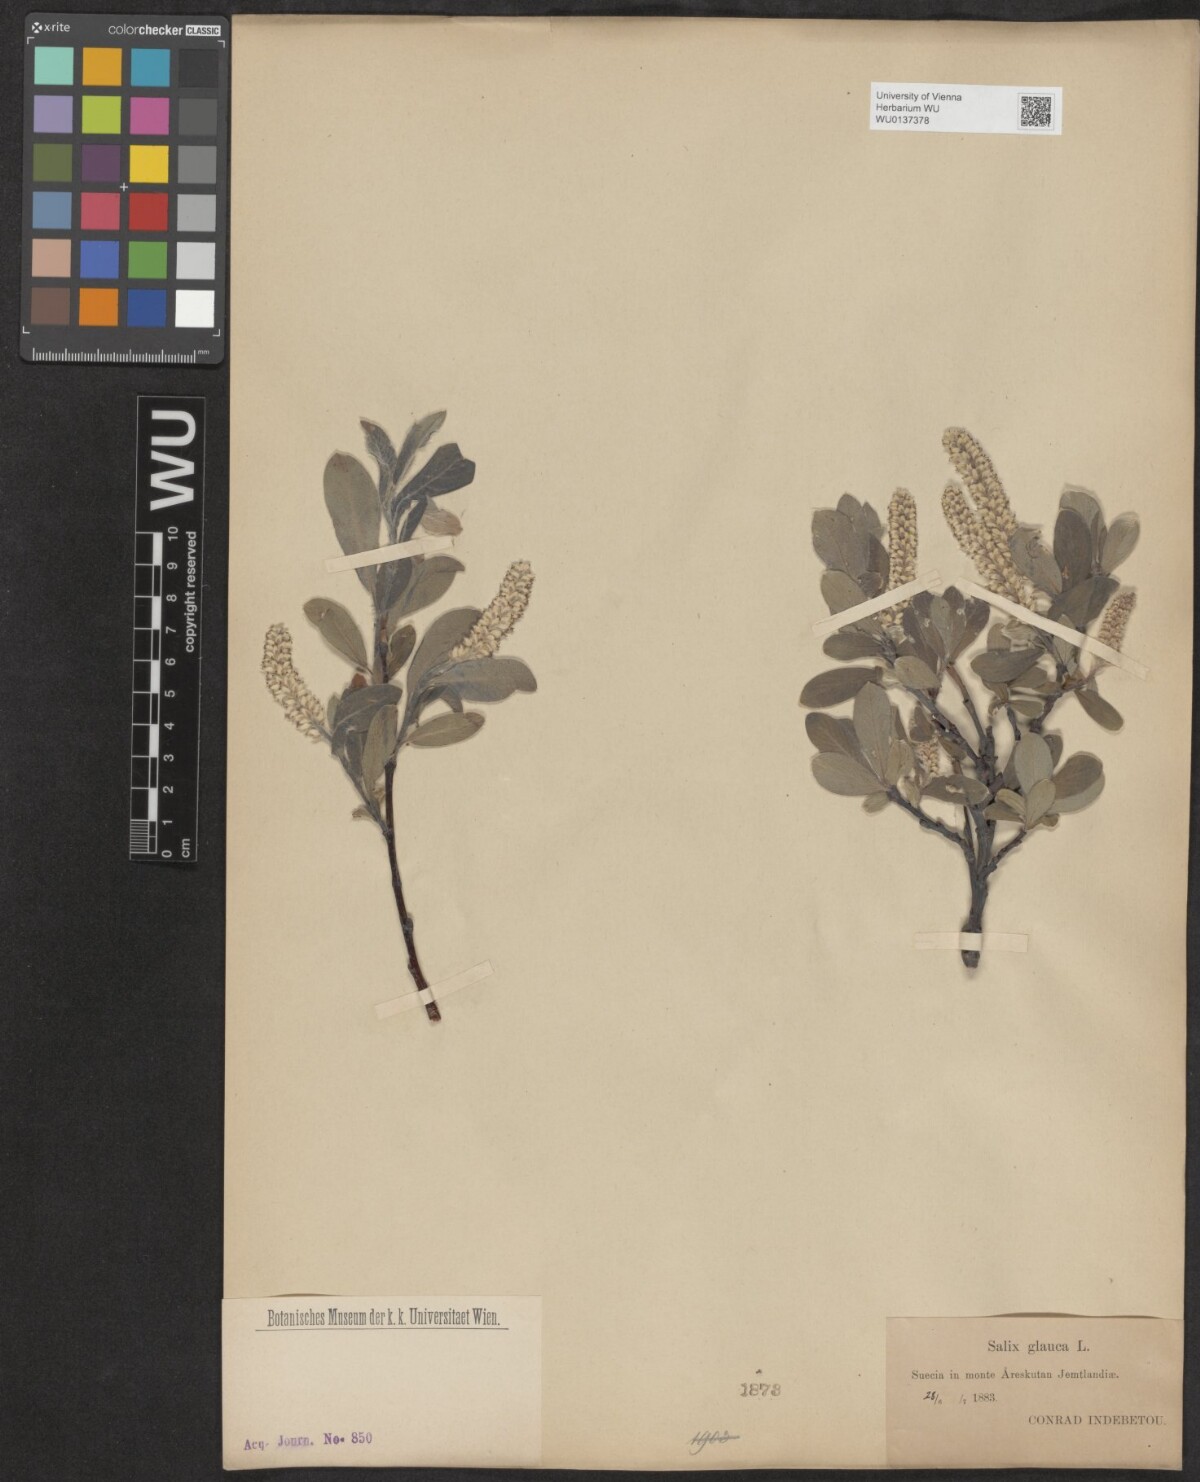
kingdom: Plantae
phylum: Tracheophyta
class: Magnoliopsida
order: Malpighiales
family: Salicaceae
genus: Salix
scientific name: Salix glauca
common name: Glaucous willow
